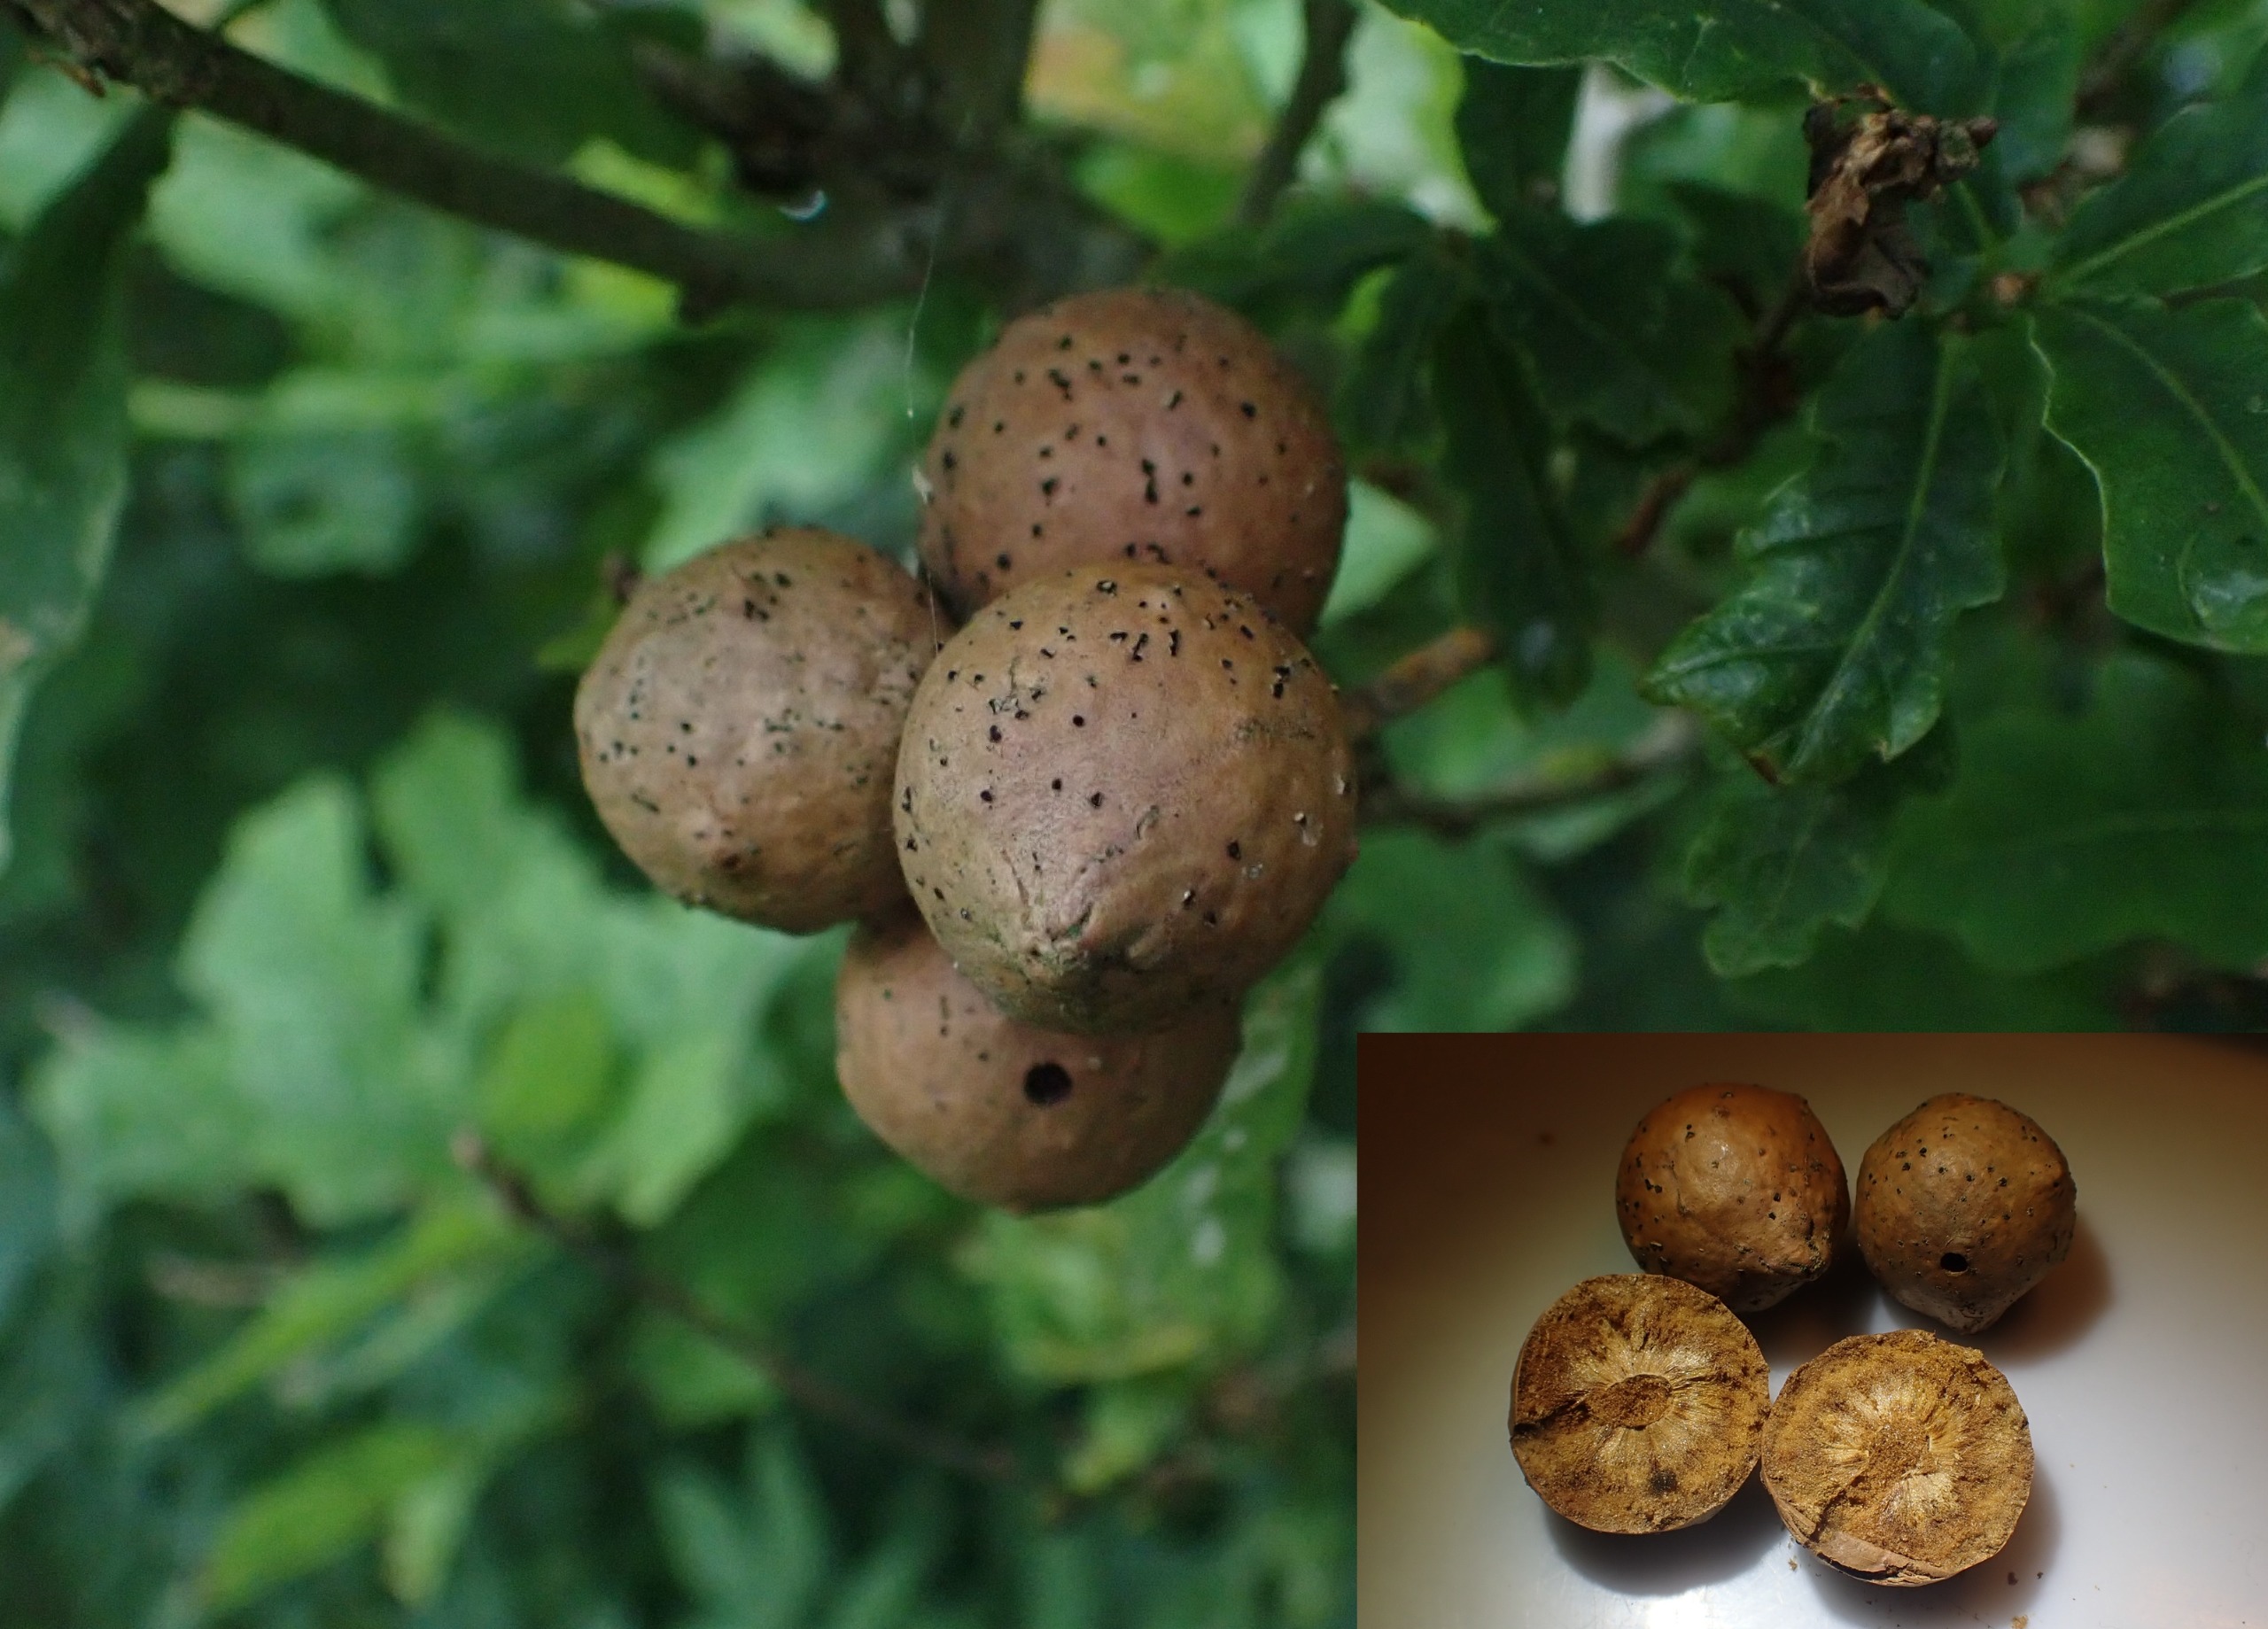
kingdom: Animalia
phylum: Arthropoda
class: Insecta
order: Hymenoptera
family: Cynipidae
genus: Andricus
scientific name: Andricus kollari
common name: Marmorkugle-galhveps
